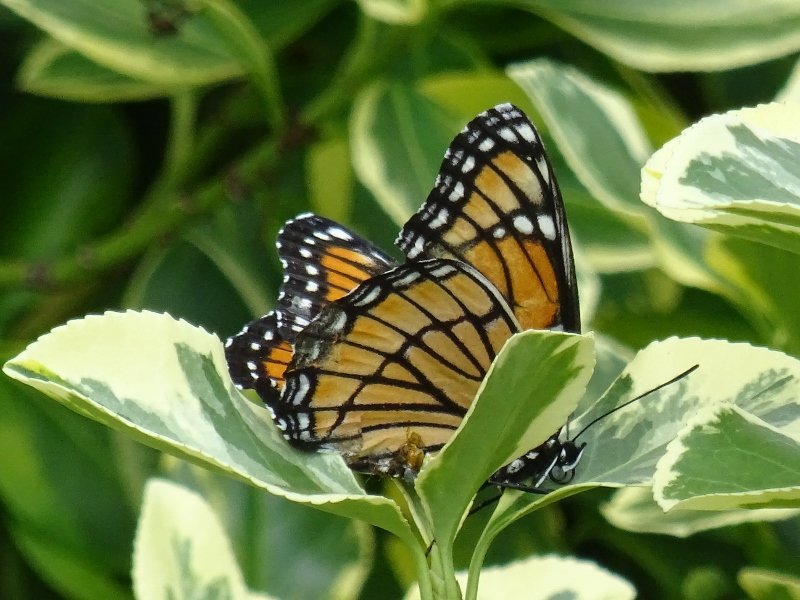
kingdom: Animalia
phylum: Arthropoda
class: Insecta
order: Lepidoptera
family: Nymphalidae
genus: Limenitis
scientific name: Limenitis archippus
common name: Viceroy
